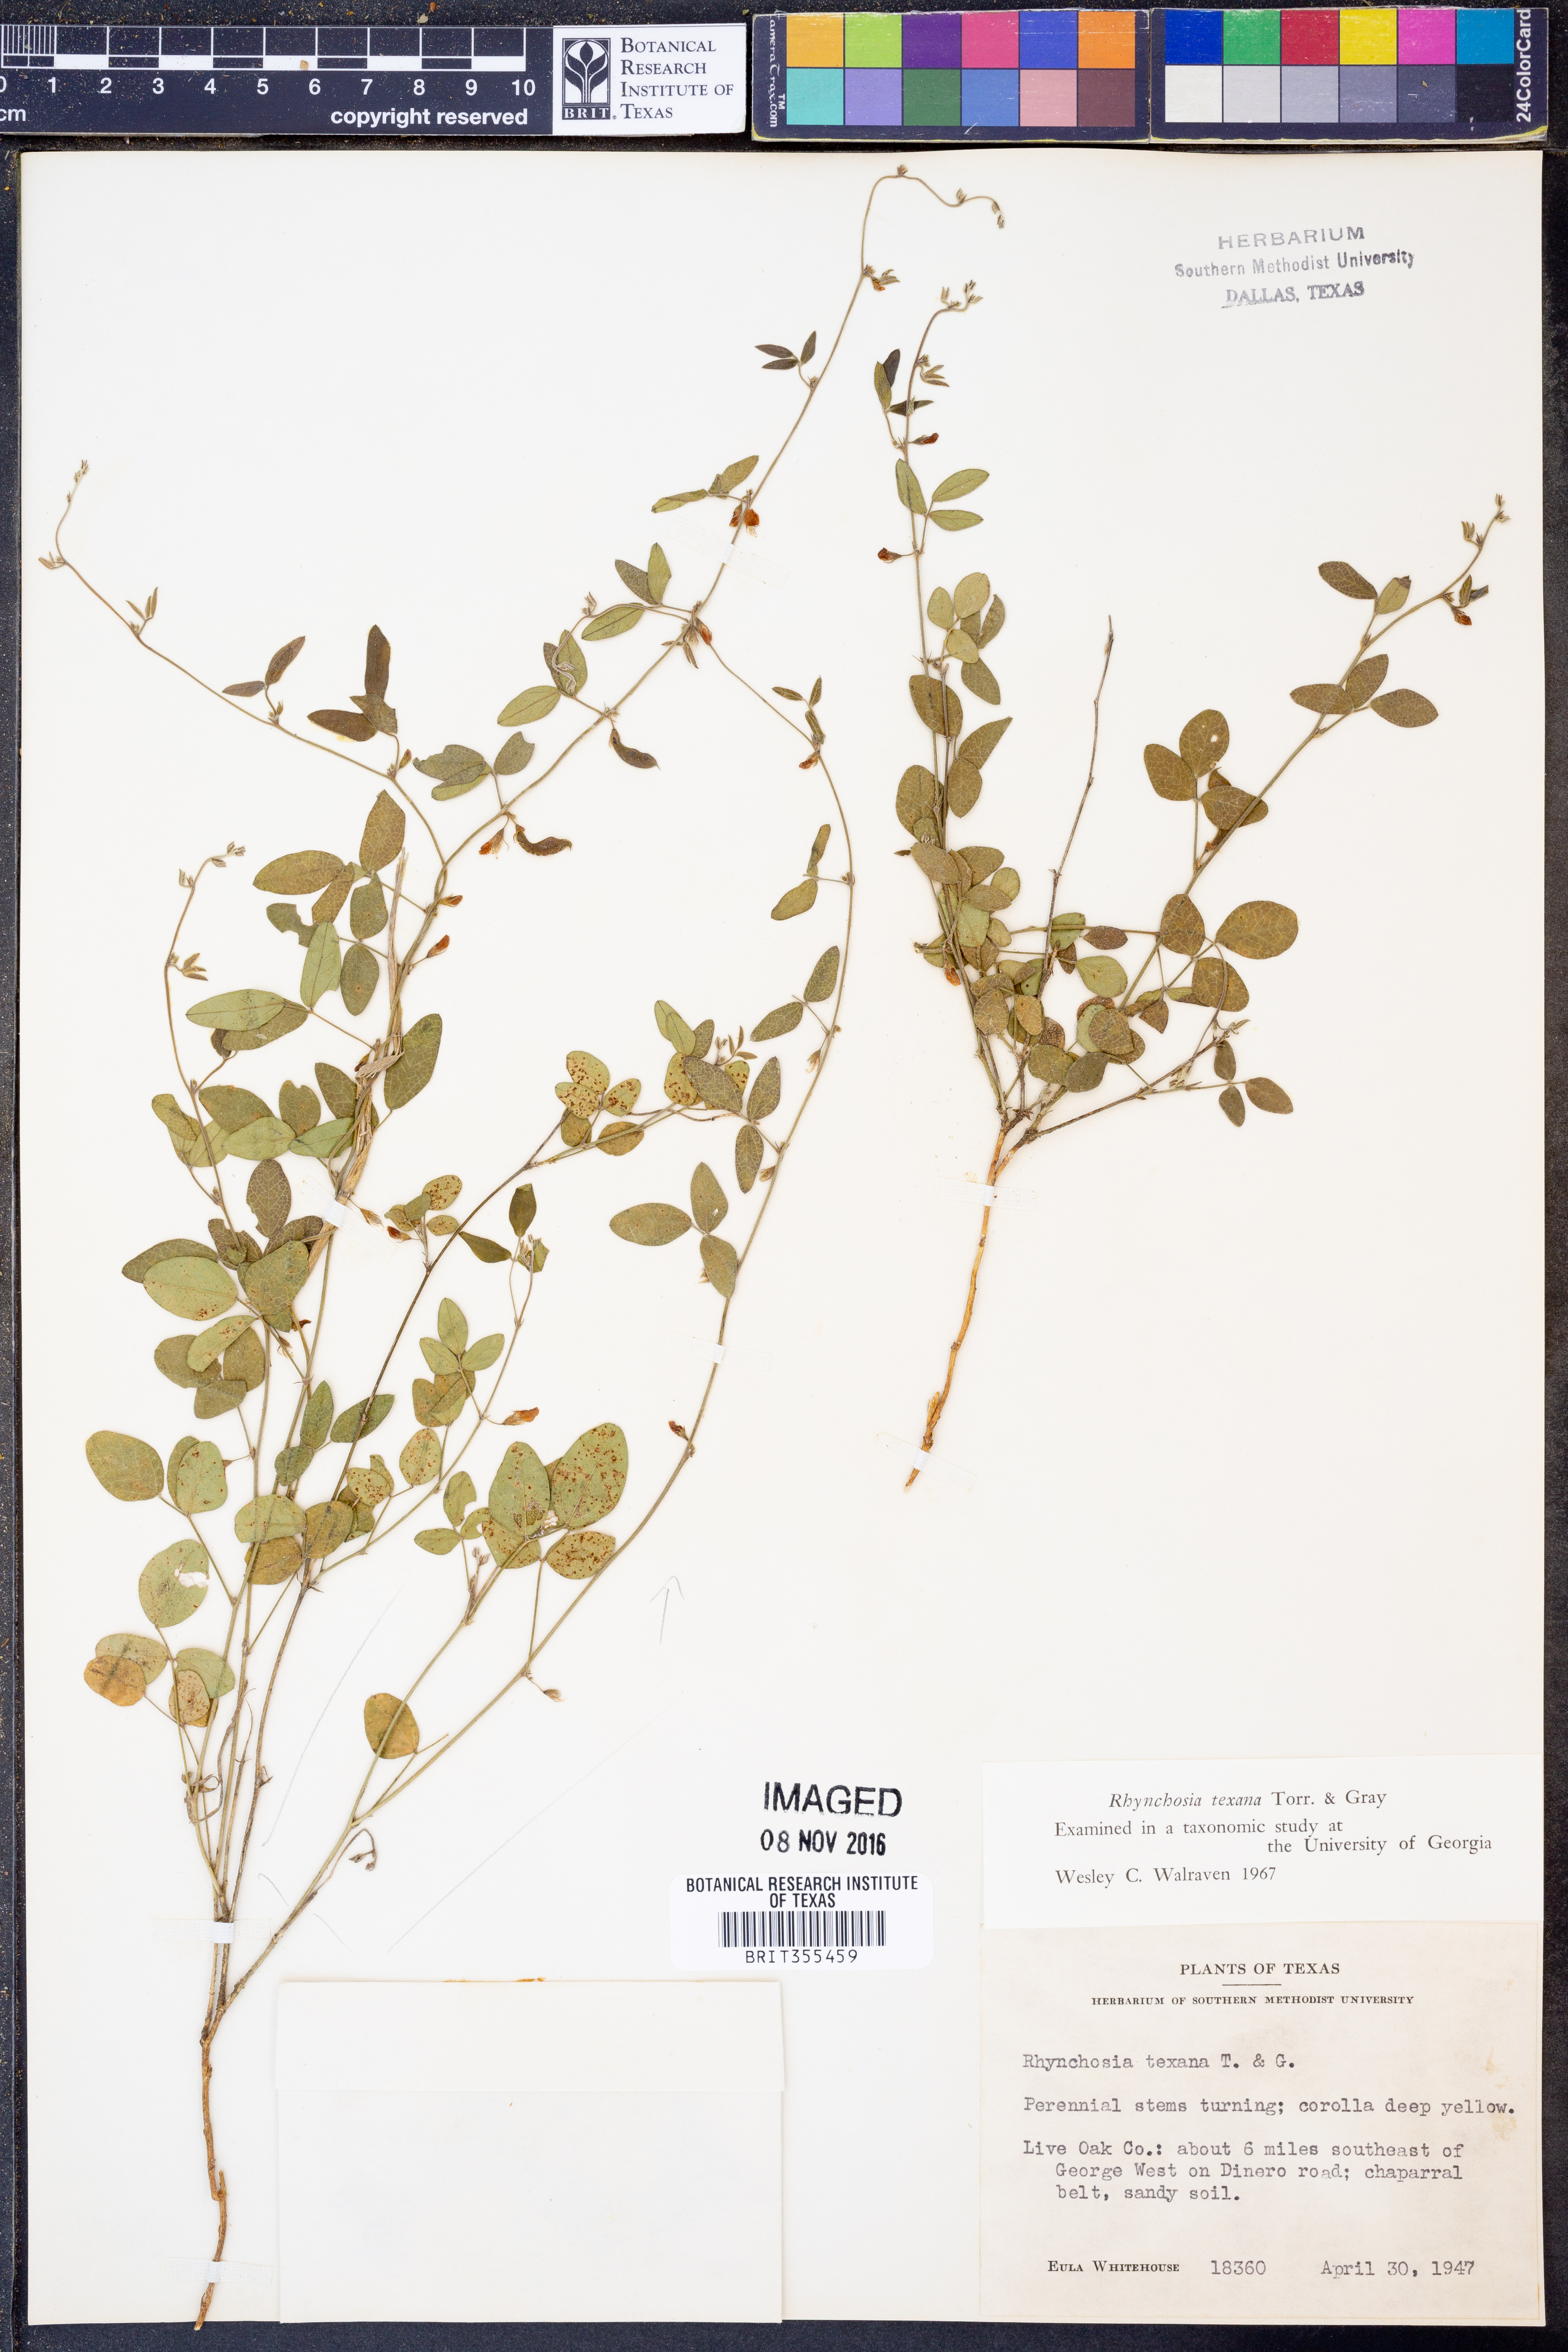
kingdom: Plantae
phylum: Tracheophyta
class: Magnoliopsida
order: Fabales
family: Fabaceae
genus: Rhynchosia
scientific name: Rhynchosia senna
